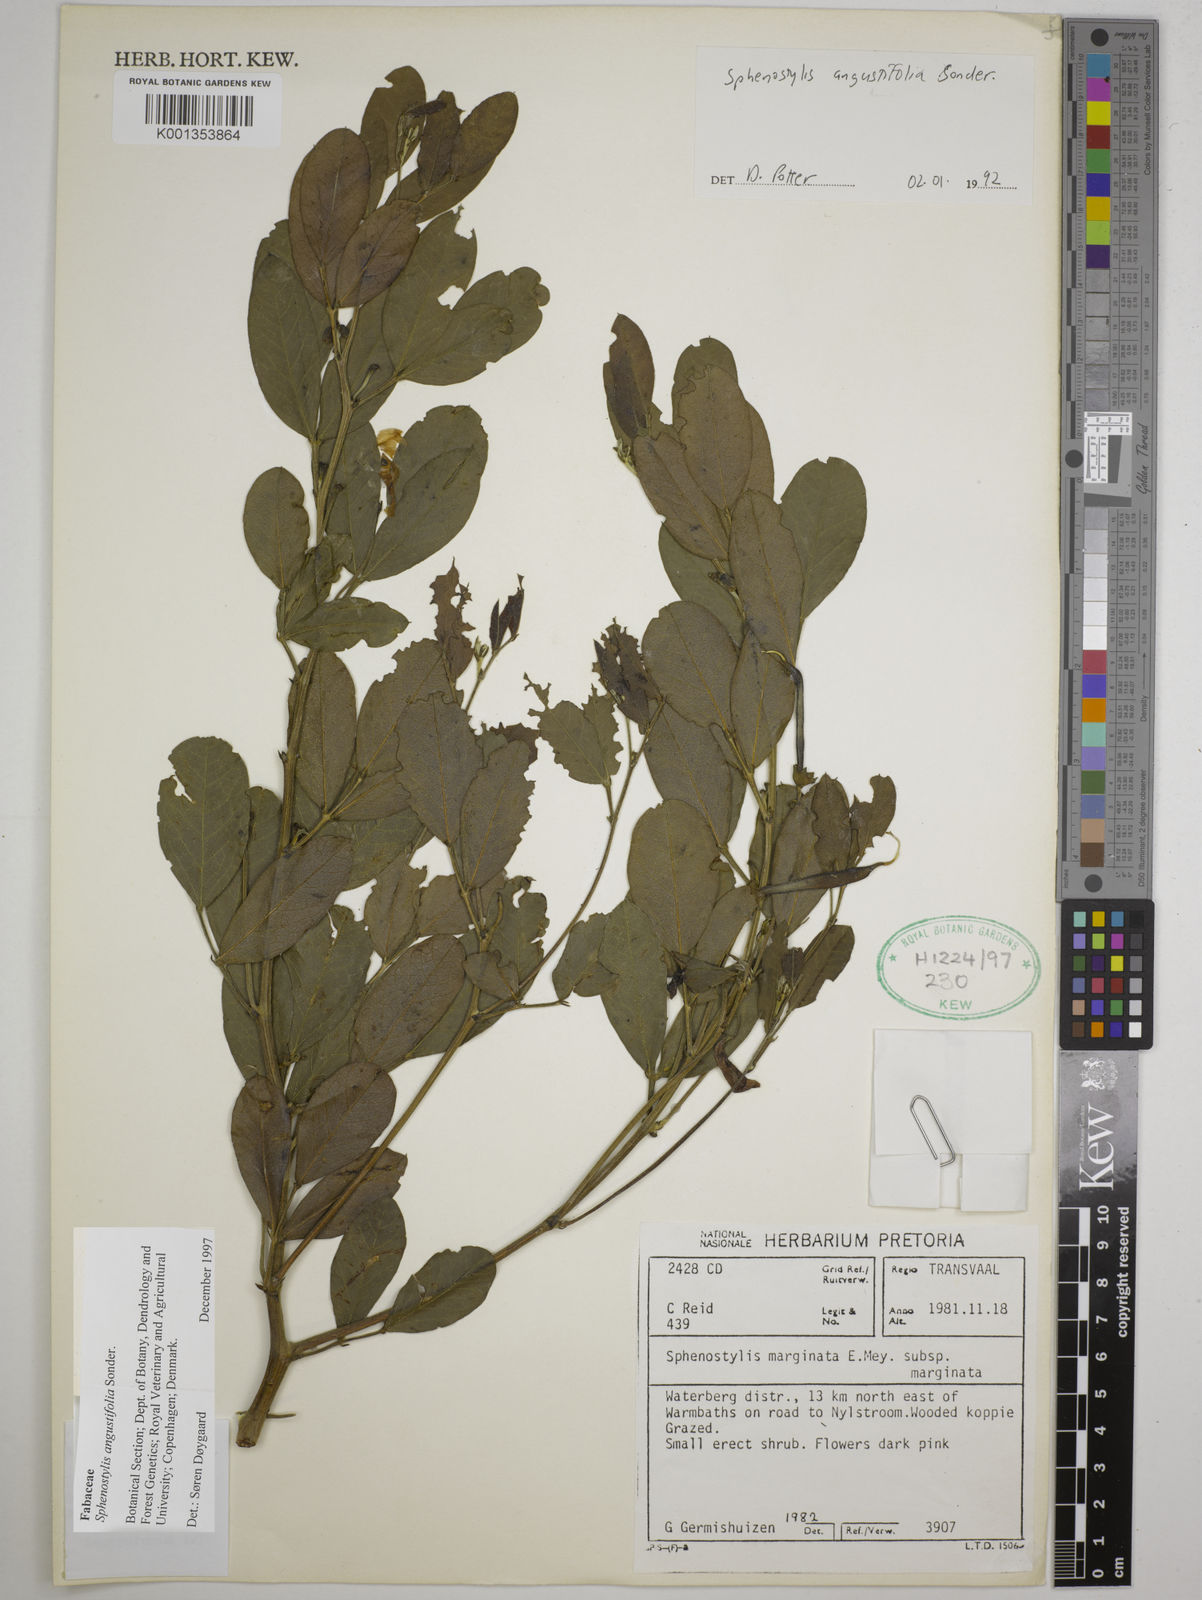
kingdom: Plantae
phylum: Tracheophyta
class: Magnoliopsida
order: Fabales
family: Fabaceae
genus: Sphenostylis
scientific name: Sphenostylis angustifolia
